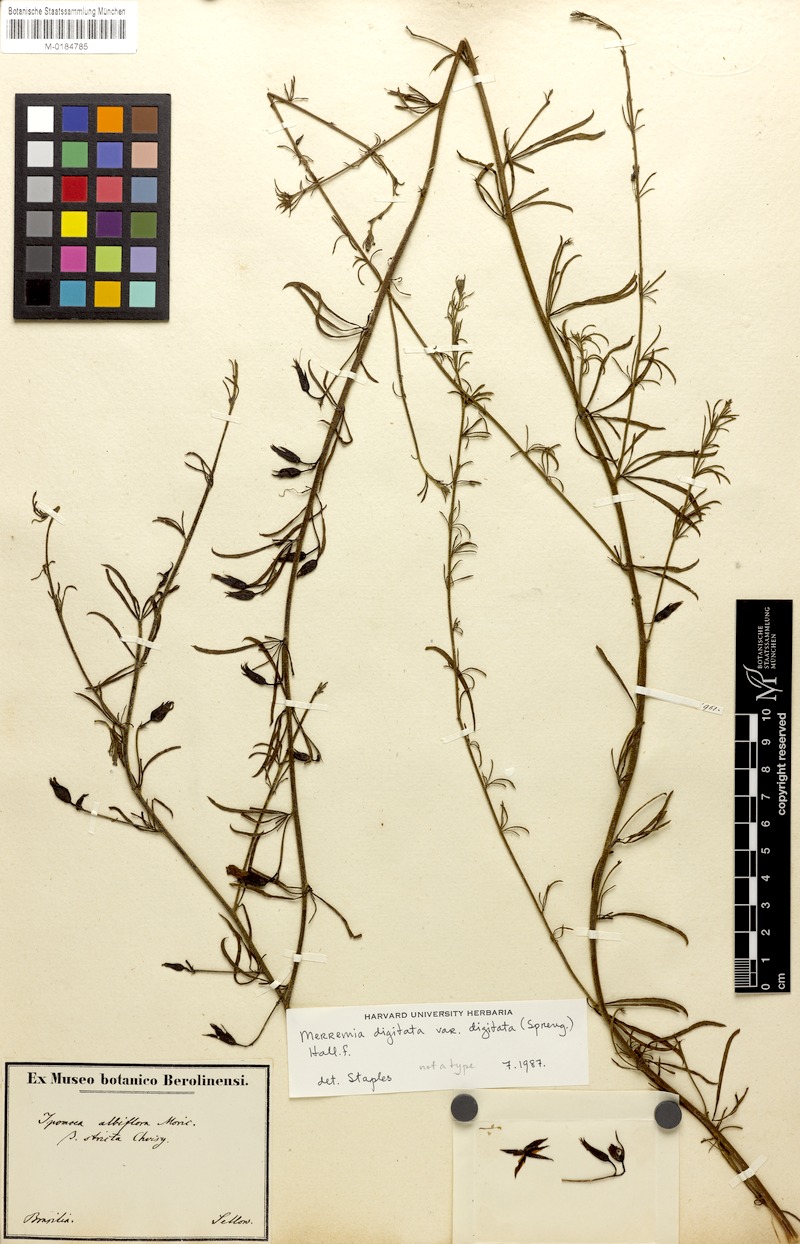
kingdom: Plantae
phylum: Tracheophyta
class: Magnoliopsida
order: Solanales
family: Convolvulaceae
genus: Distimake
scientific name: Distimake digitatus
